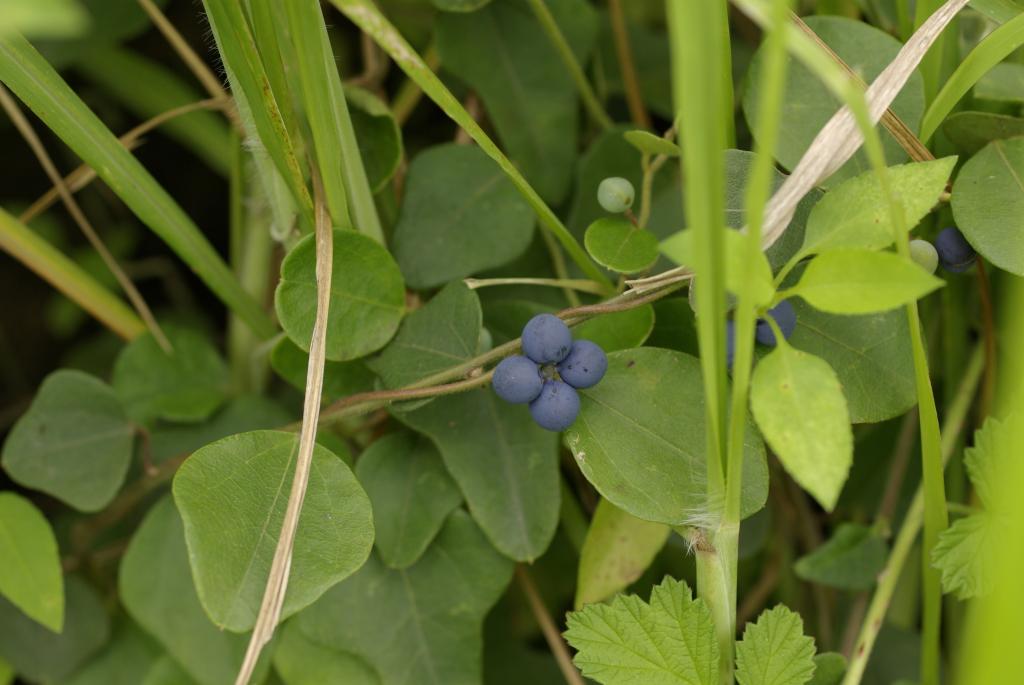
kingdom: Plantae
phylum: Tracheophyta
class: Magnoliopsida
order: Ranunculales
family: Menispermaceae
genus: Cocculus
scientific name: Cocculus orbiculatus
